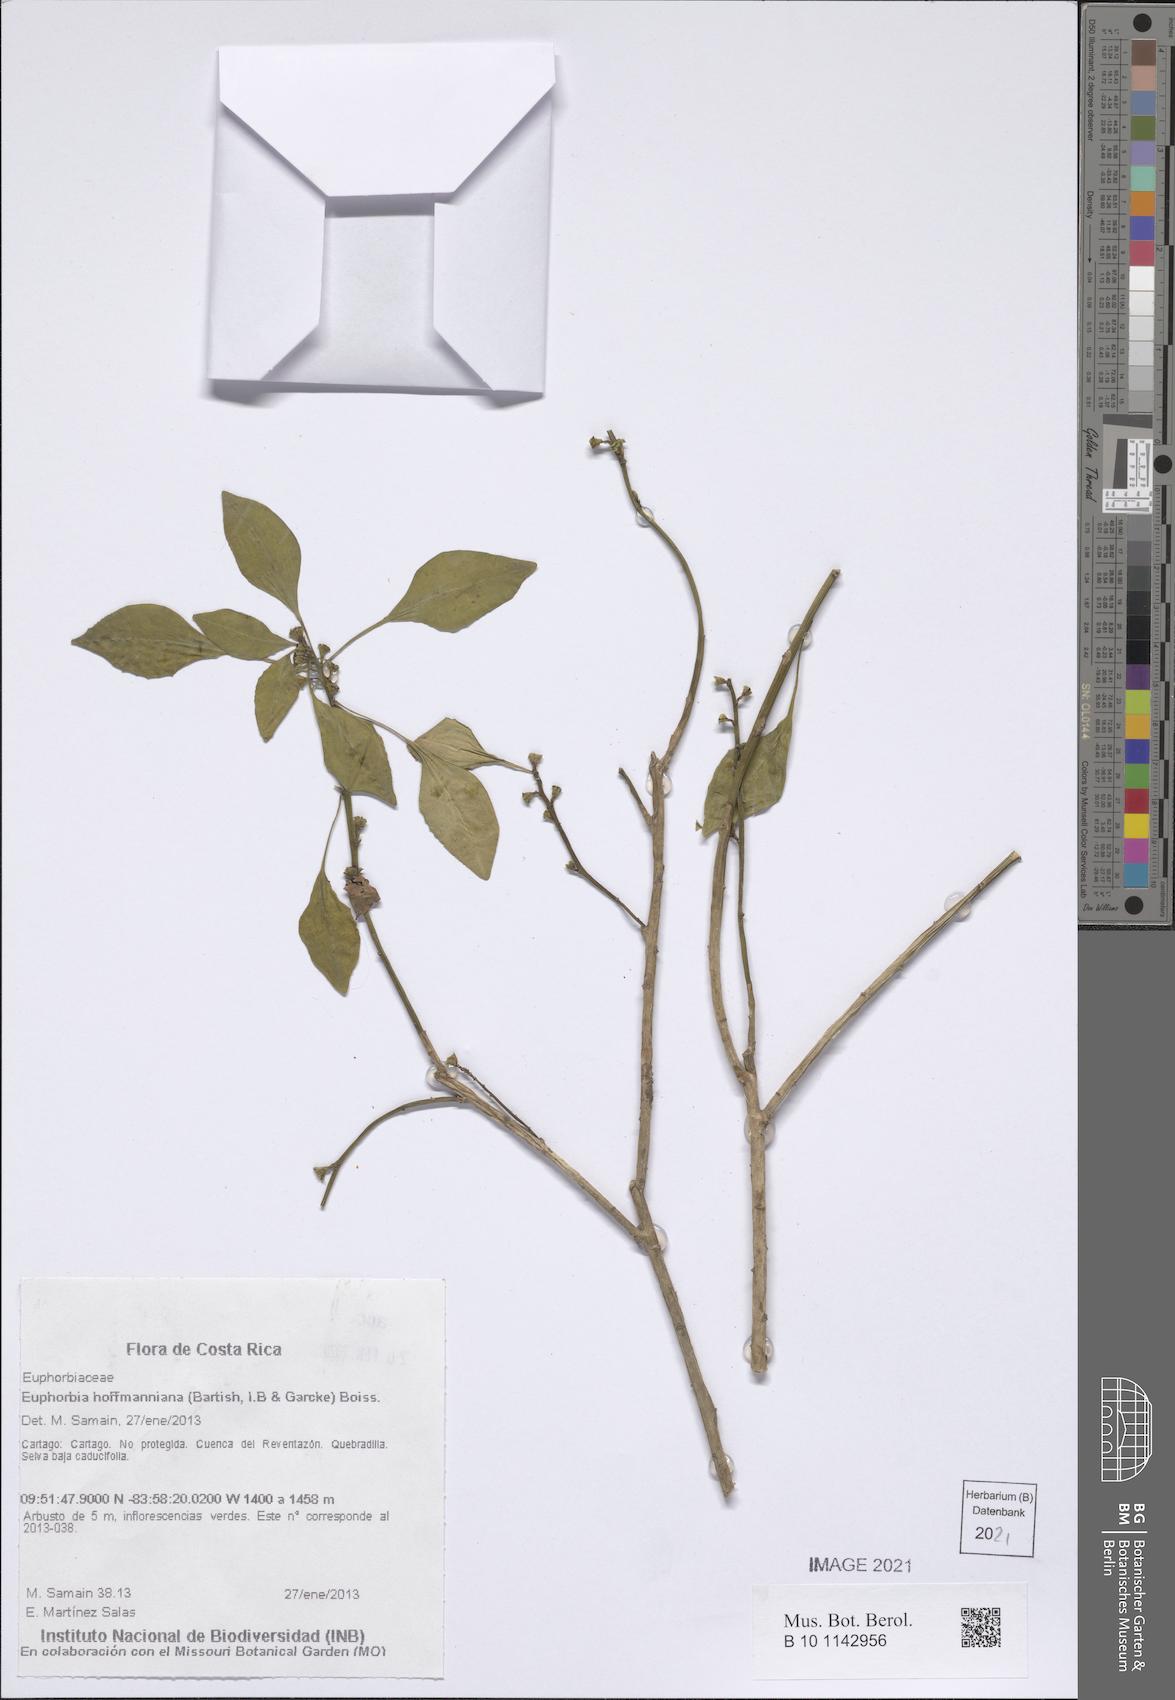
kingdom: Plantae
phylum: Tracheophyta
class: Magnoliopsida
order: Malpighiales
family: Euphorbiaceae
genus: Euphorbia
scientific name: Euphorbia hoffmanniana
